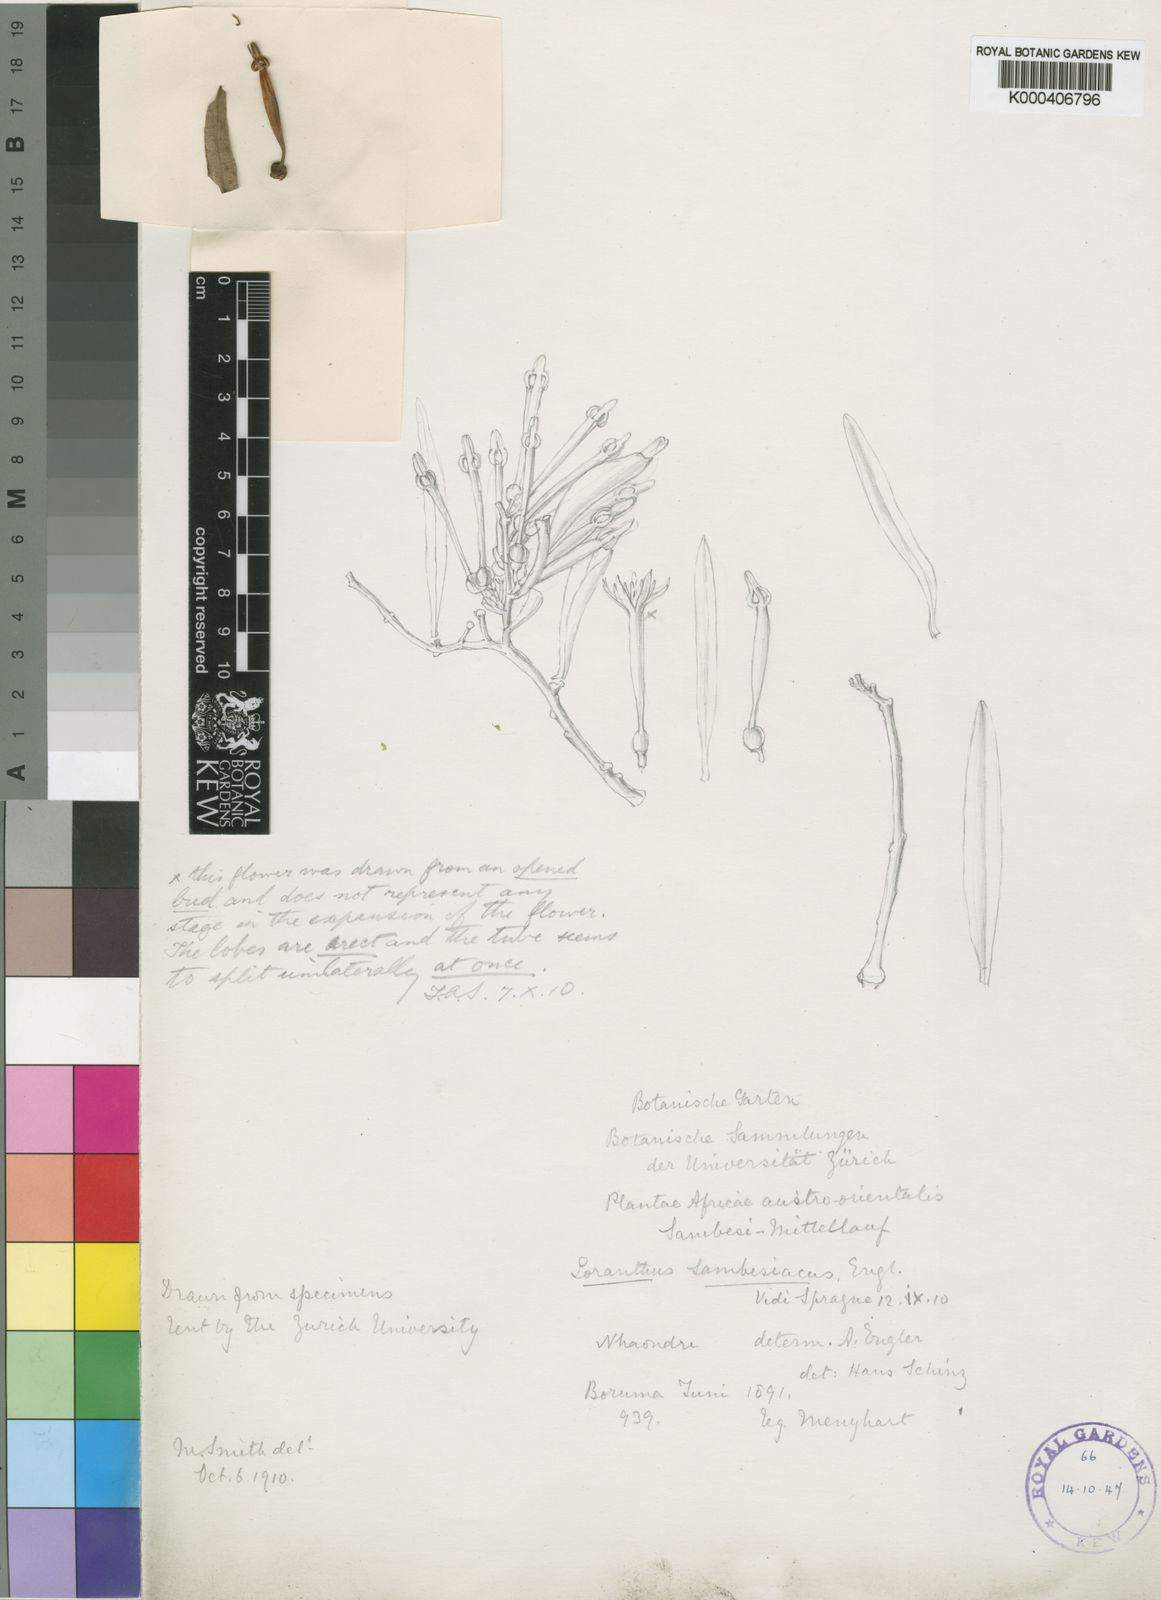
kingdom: Plantae
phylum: Tracheophyta
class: Magnoliopsida
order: Santalales
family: Loranthaceae
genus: Agelanthus
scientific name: Agelanthus sambesiacus
